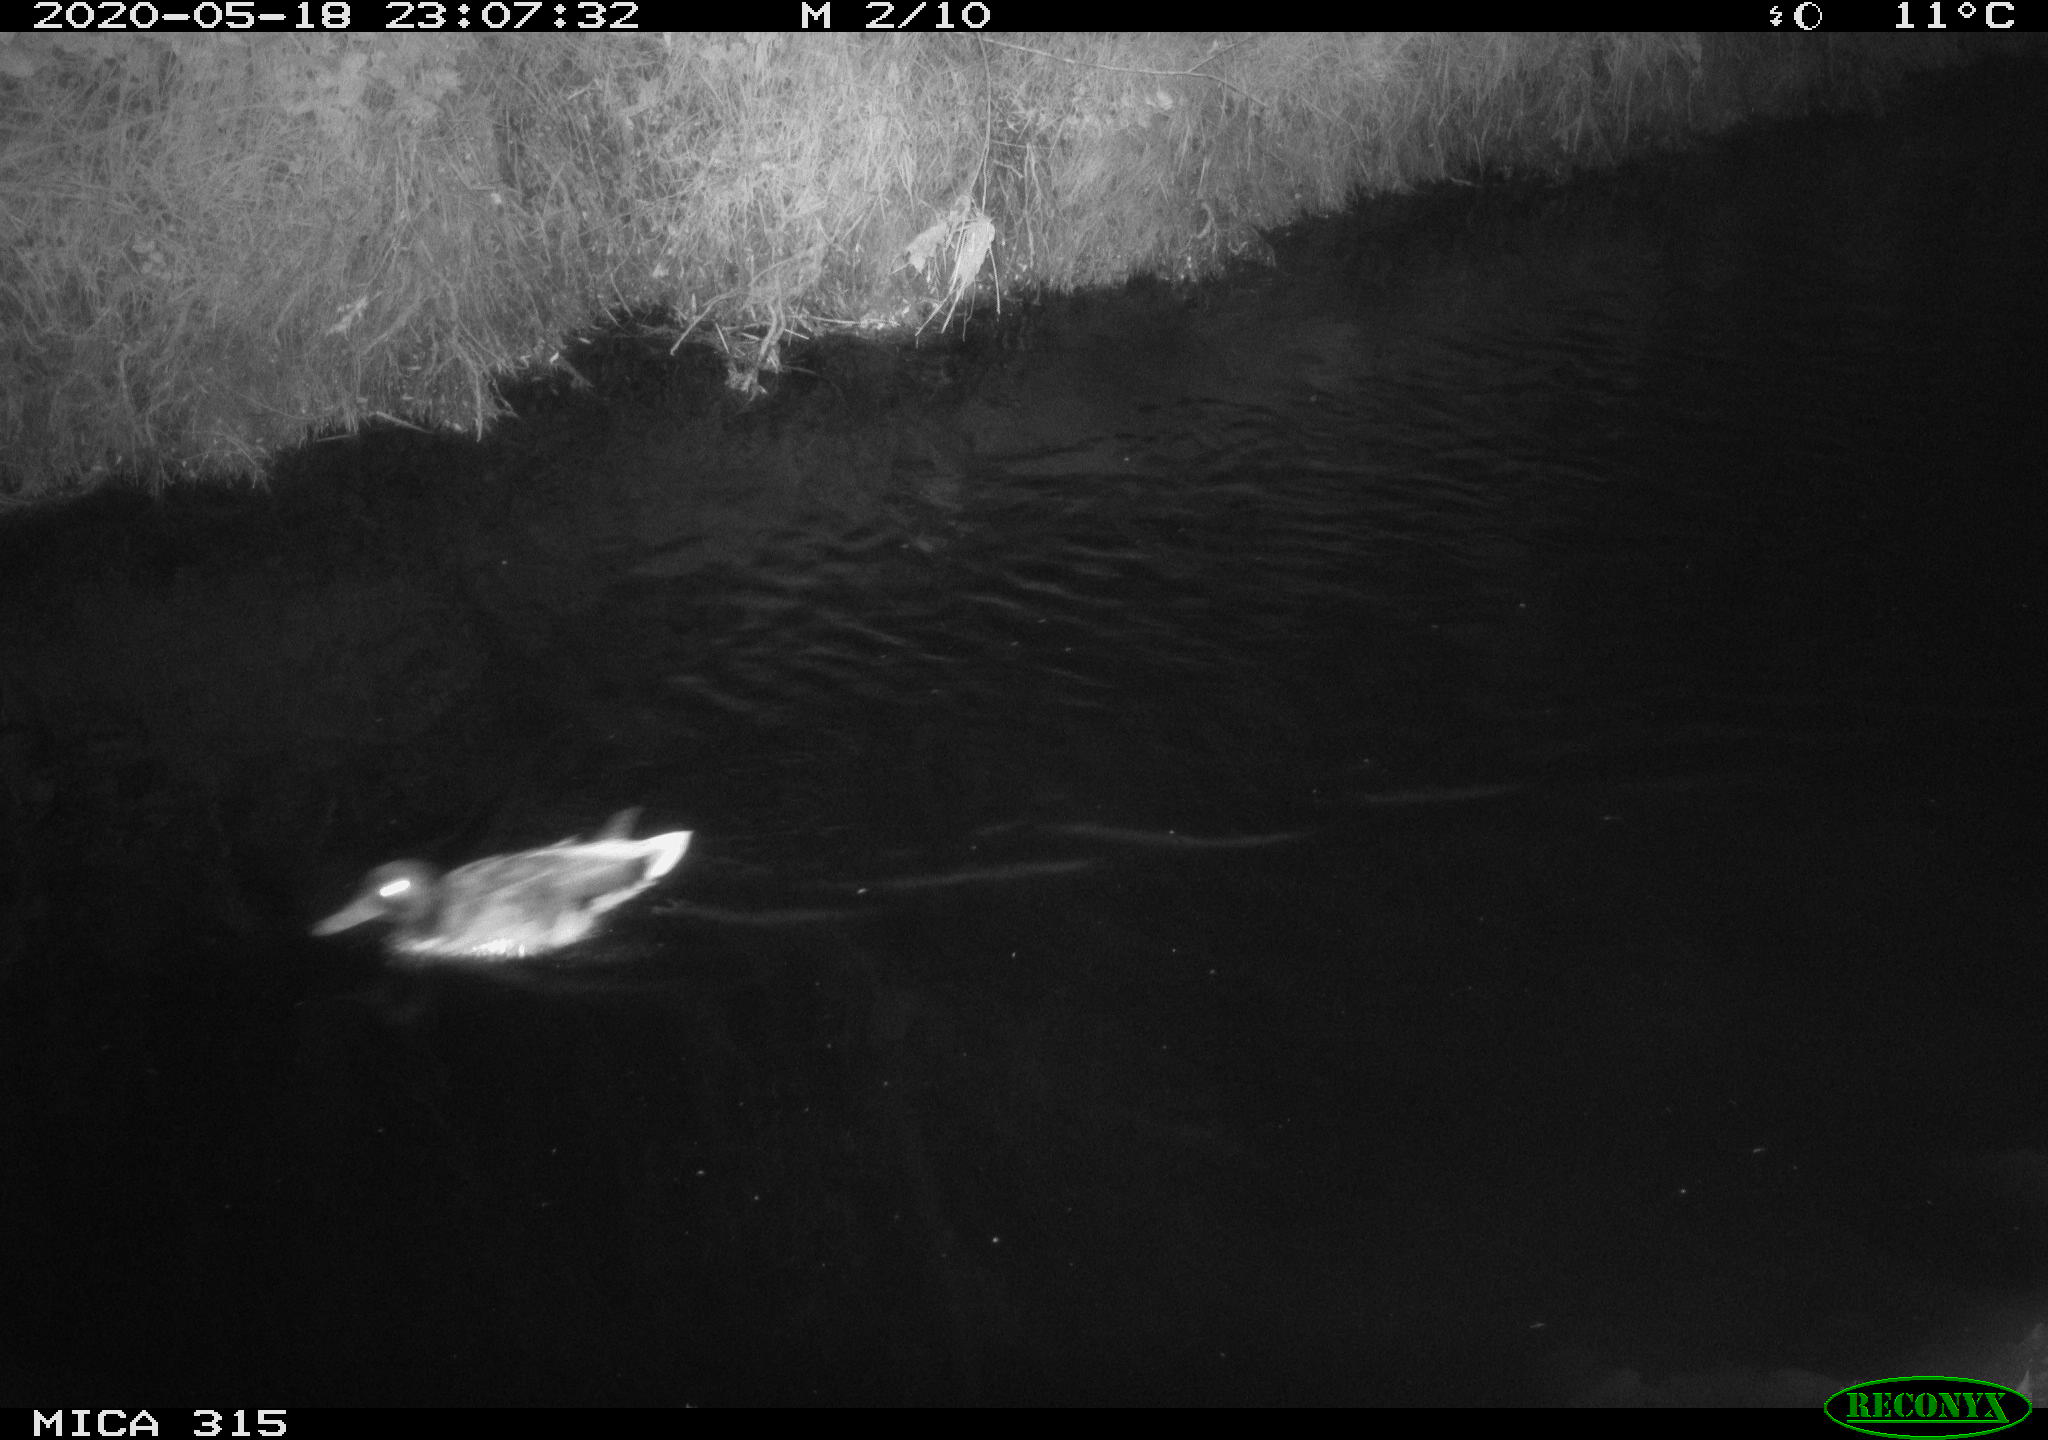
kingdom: Animalia
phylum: Chordata
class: Aves
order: Anseriformes
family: Anatidae
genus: Anas
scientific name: Anas platyrhynchos
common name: Mallard
